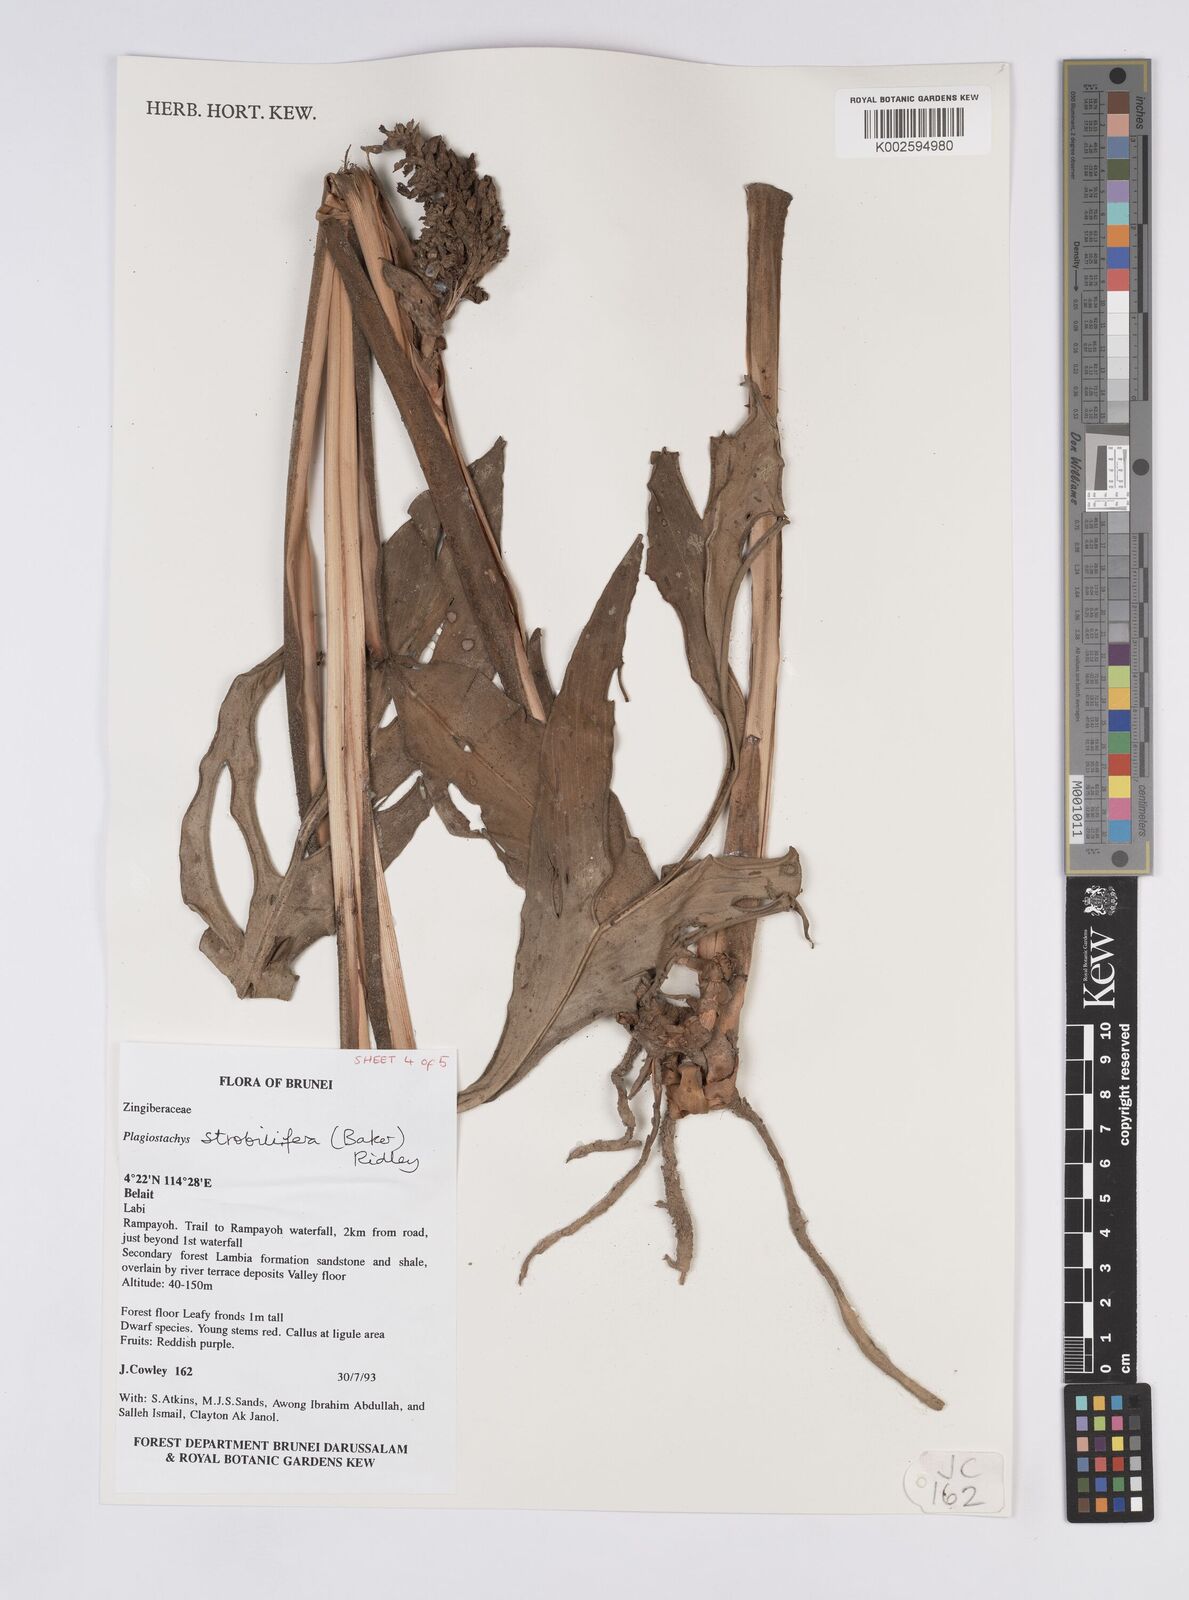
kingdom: Plantae
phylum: Tracheophyta
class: Liliopsida
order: Zingiberales
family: Zingiberaceae
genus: Plagiostachys
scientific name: Plagiostachys strobilifera
